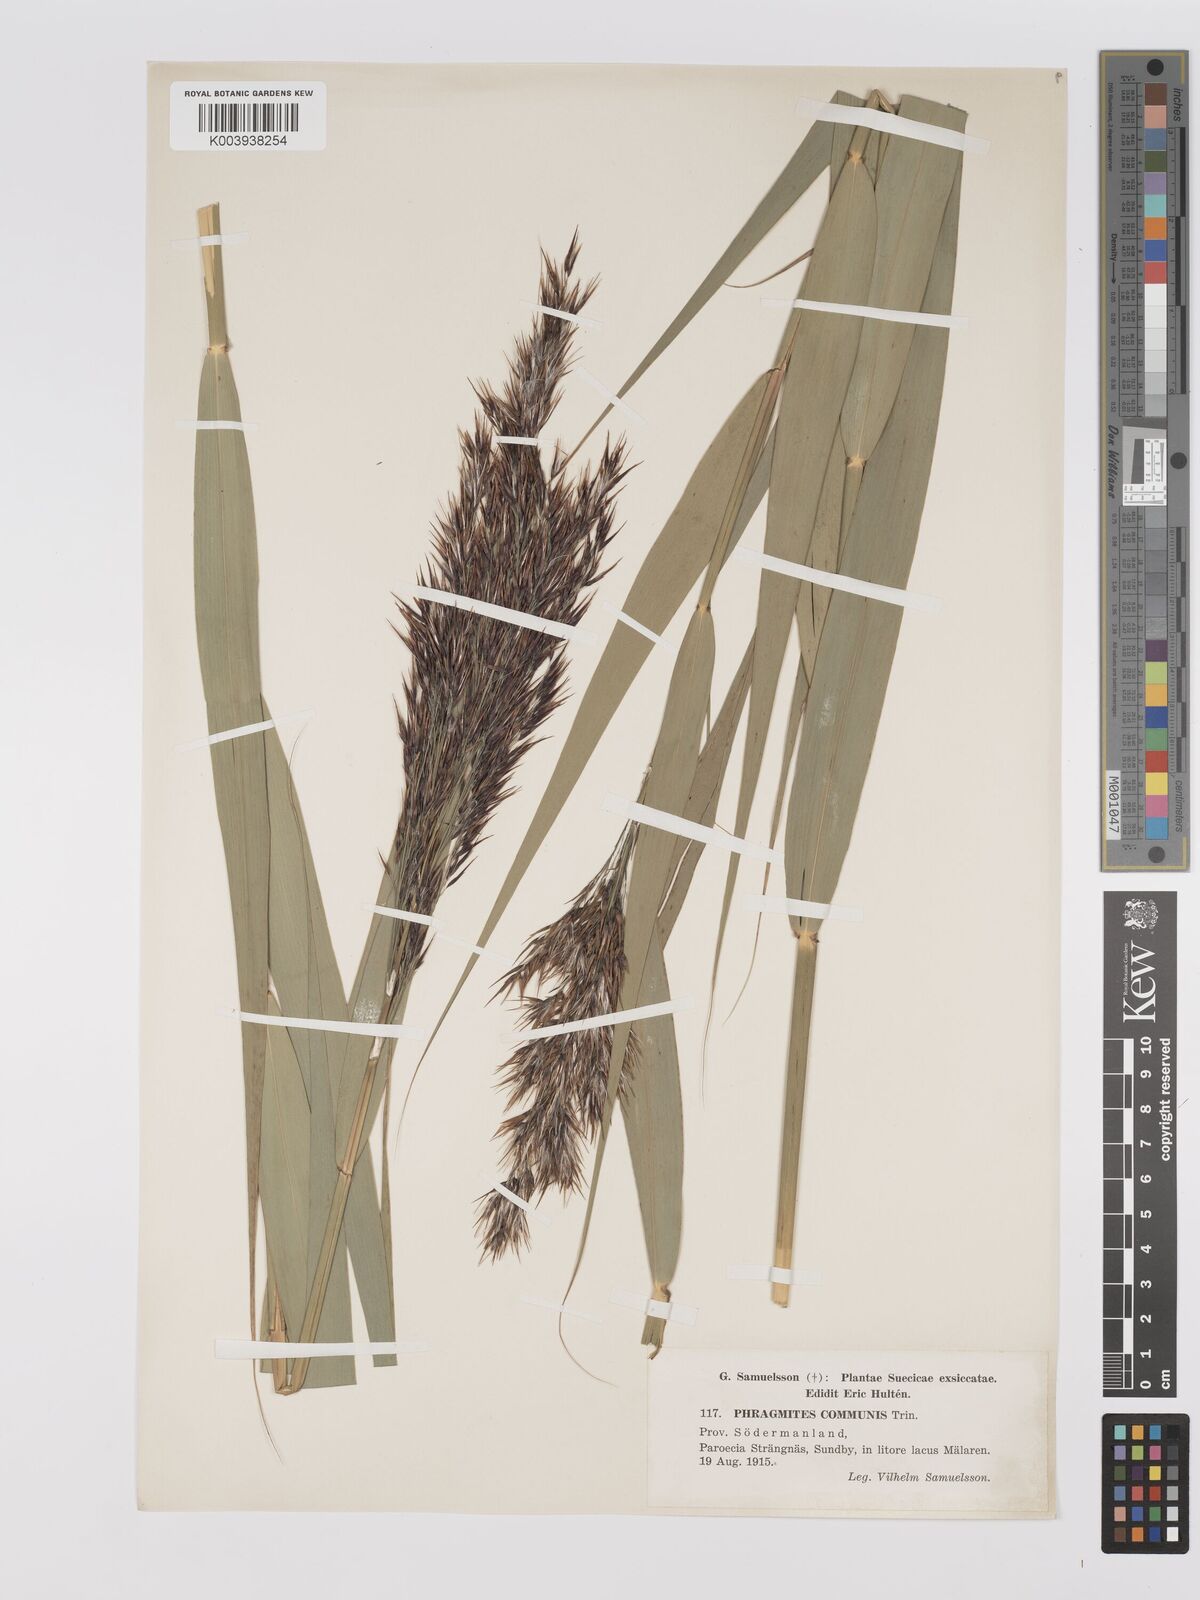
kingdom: Plantae
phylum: Tracheophyta
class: Liliopsida
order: Poales
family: Poaceae
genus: Phragmites
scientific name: Phragmites australis
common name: Common reed
